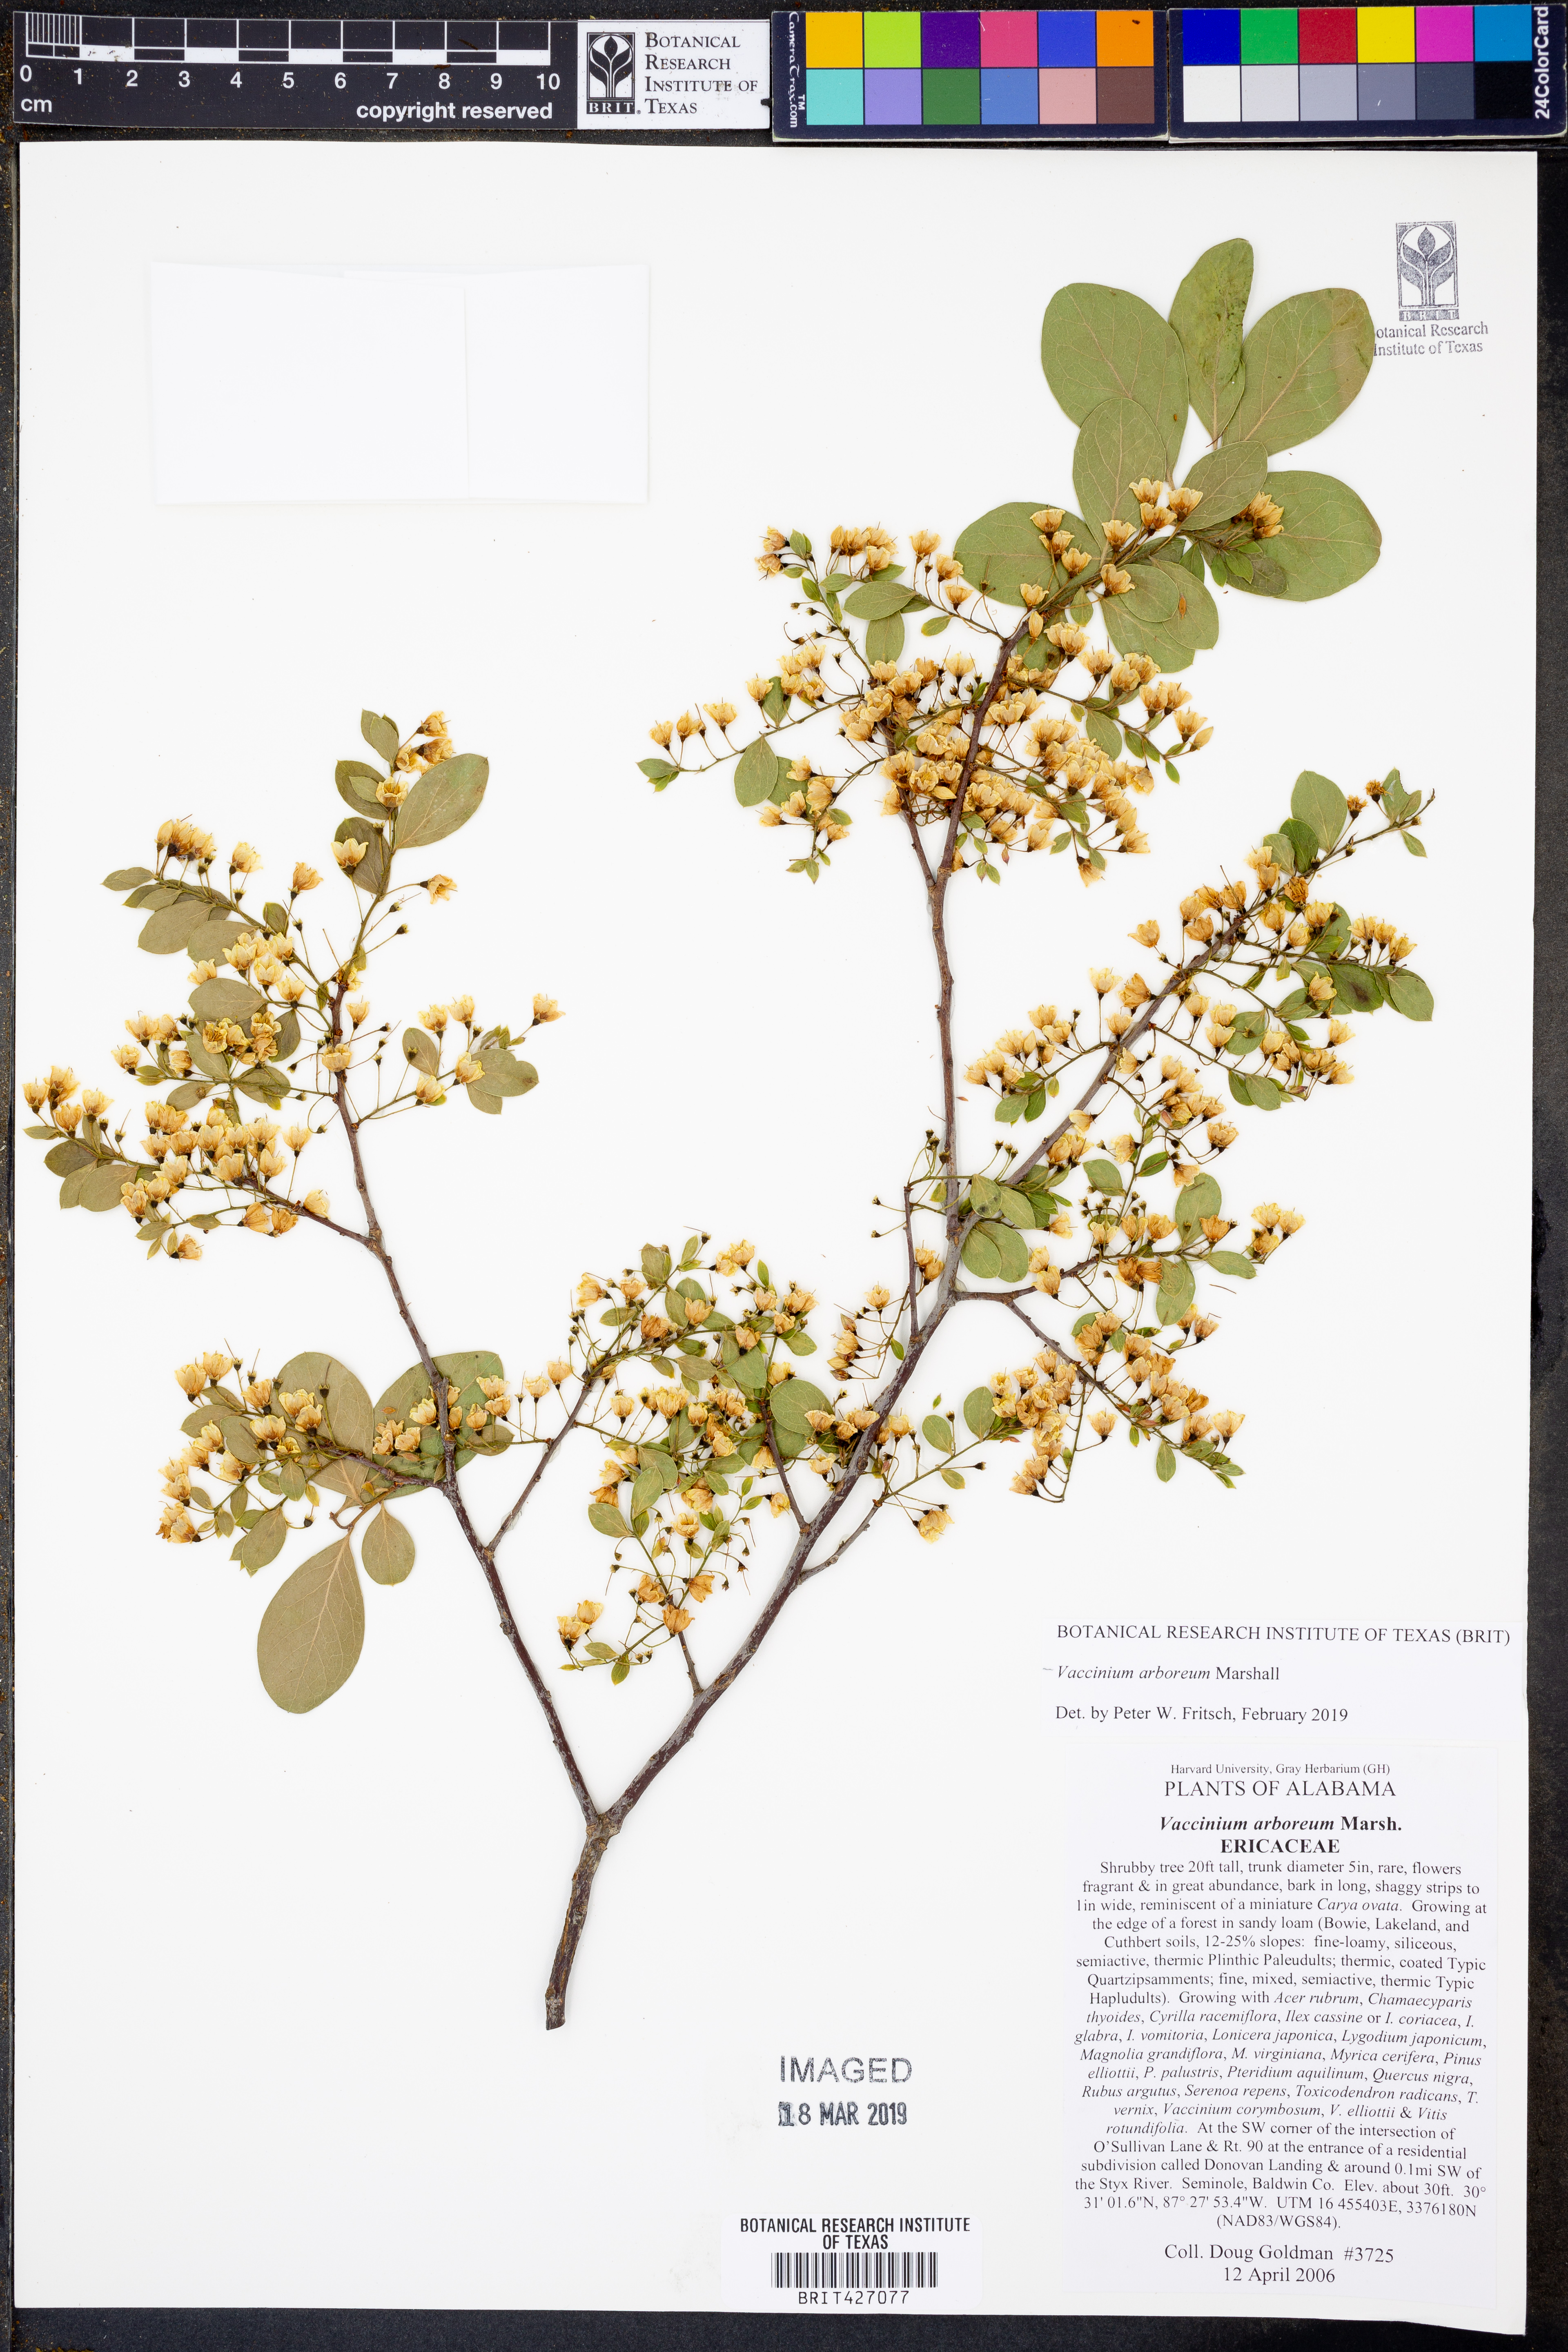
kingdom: Plantae
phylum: Tracheophyta
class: Magnoliopsida
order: Ericales
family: Ericaceae
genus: Vaccinium
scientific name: Vaccinium arboreum
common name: Farkleberry
